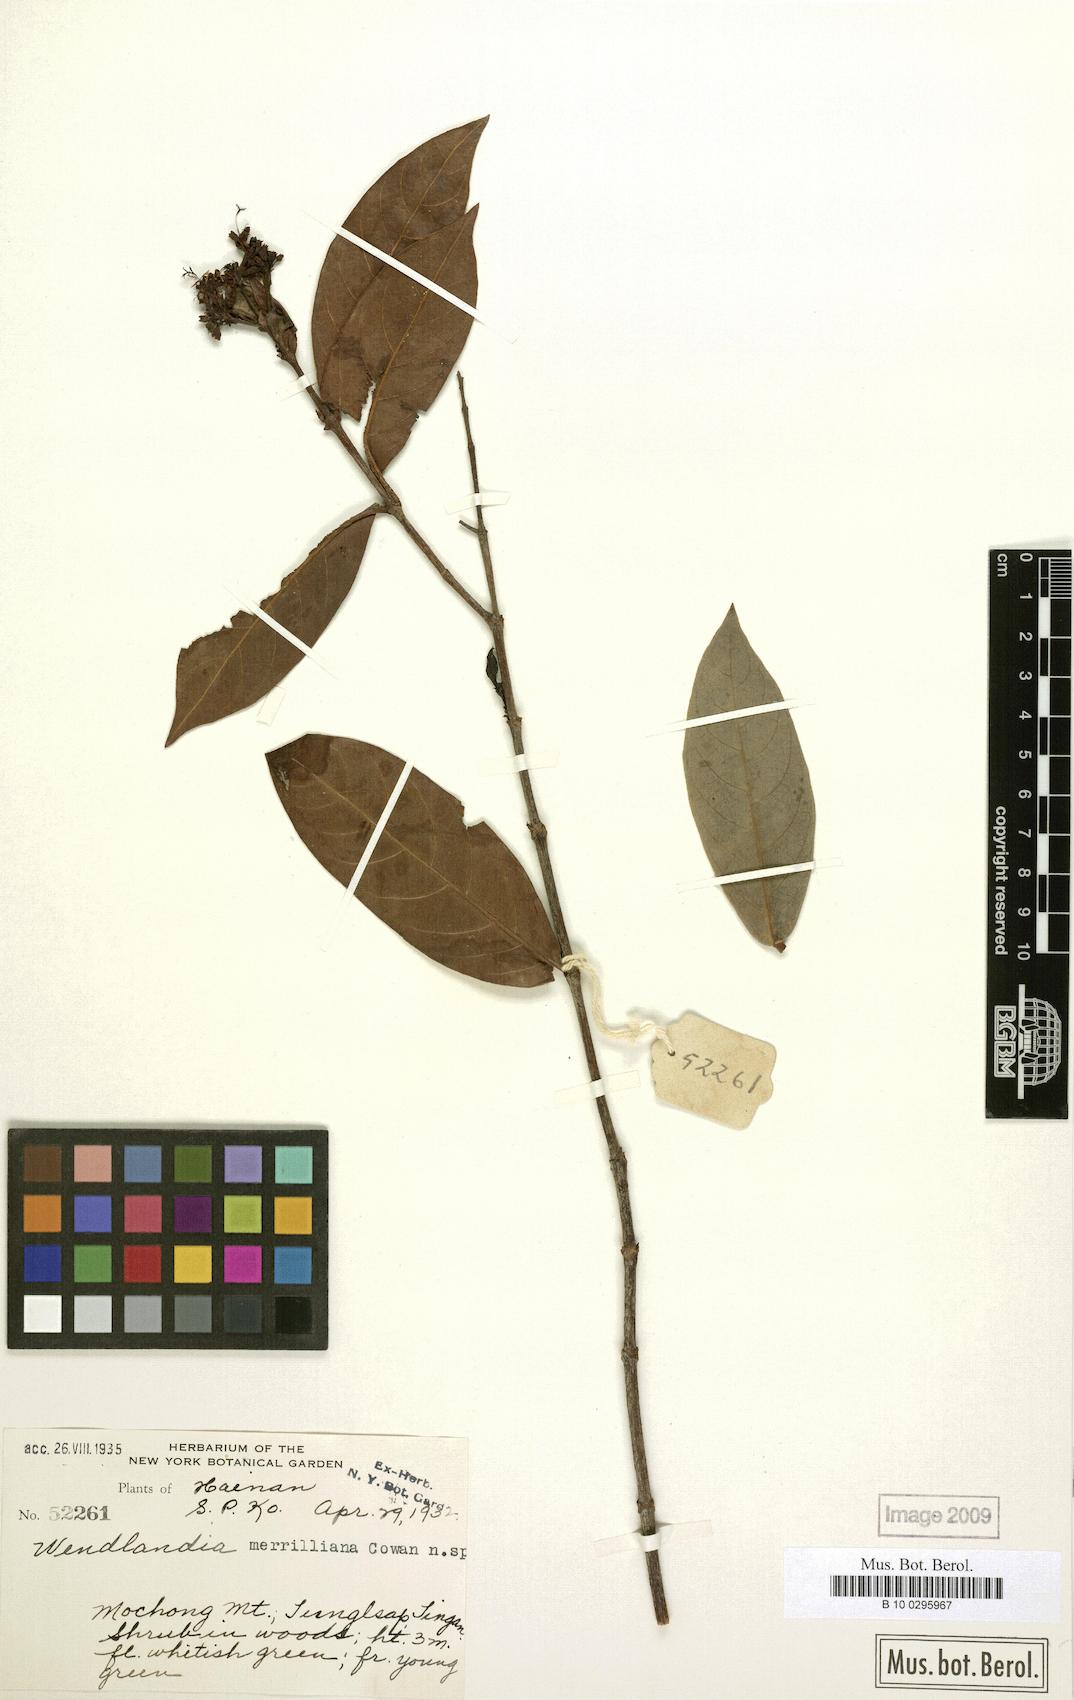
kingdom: Plantae
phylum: Tracheophyta
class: Magnoliopsida
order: Gentianales
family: Rubiaceae
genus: Wendlandia
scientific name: Wendlandia merrilliana
